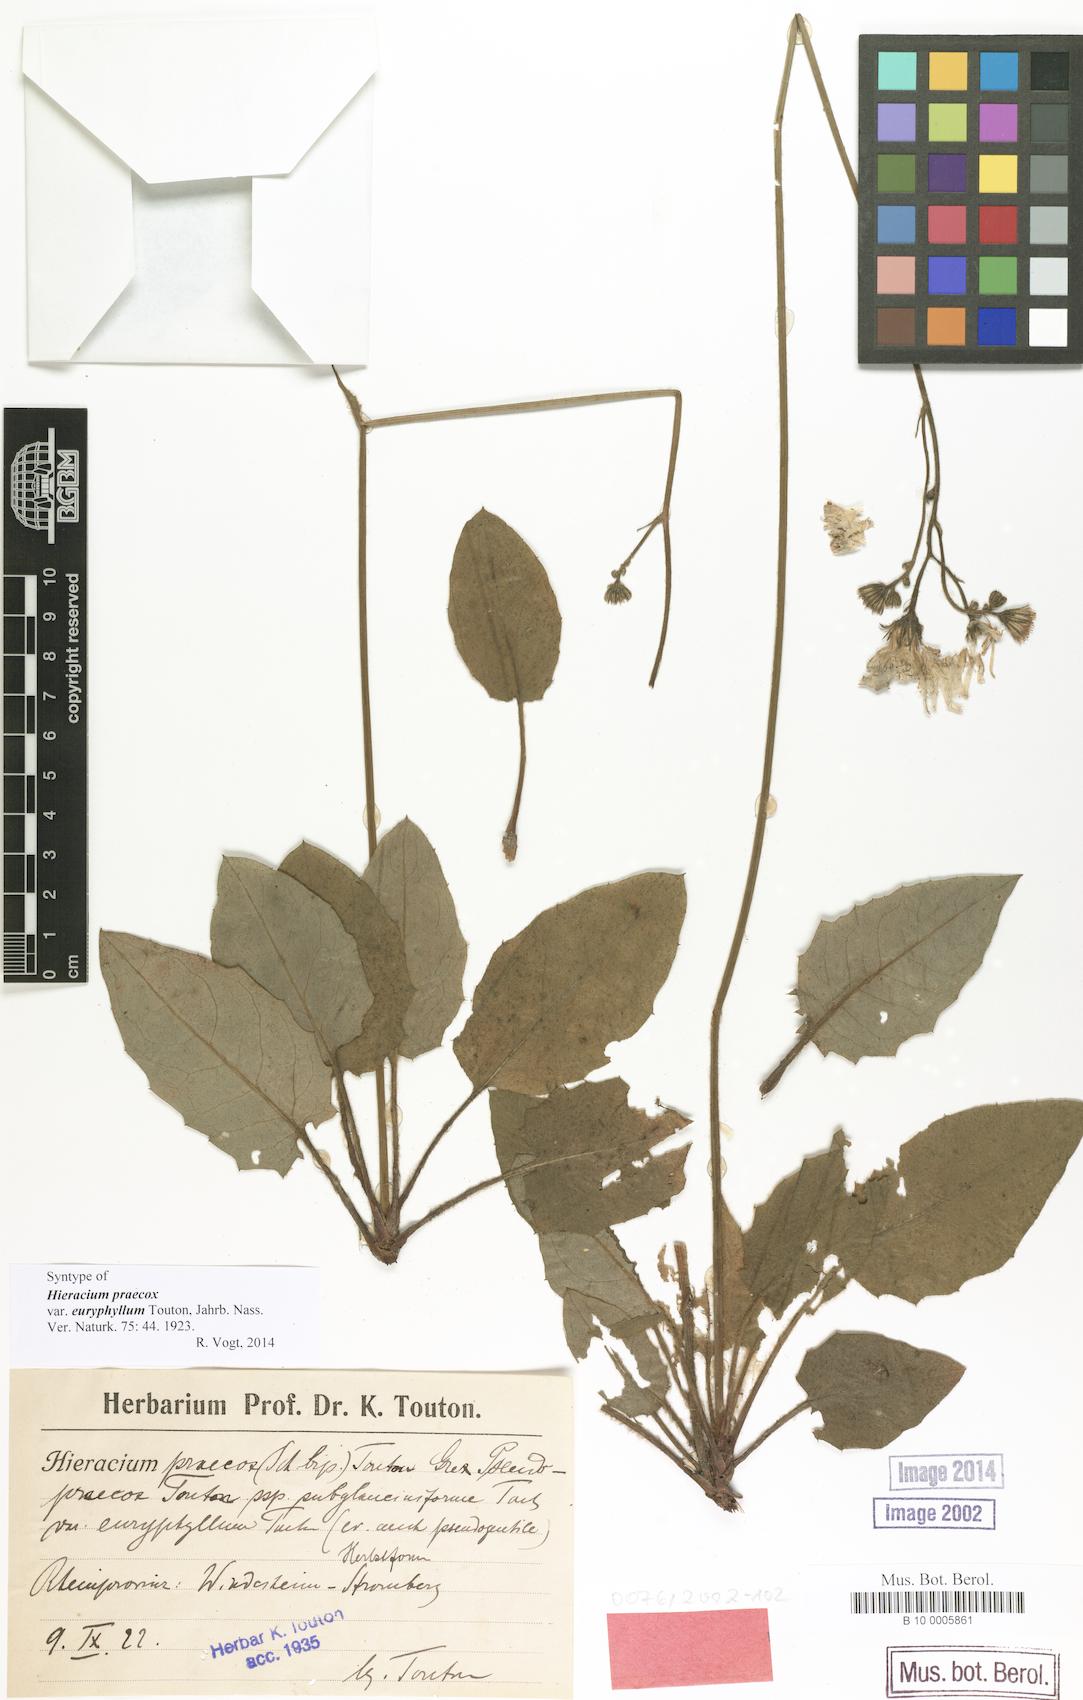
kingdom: Plantae
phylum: Tracheophyta
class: Magnoliopsida
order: Asterales
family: Asteraceae
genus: Hieracium
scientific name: Hieracium praecox
